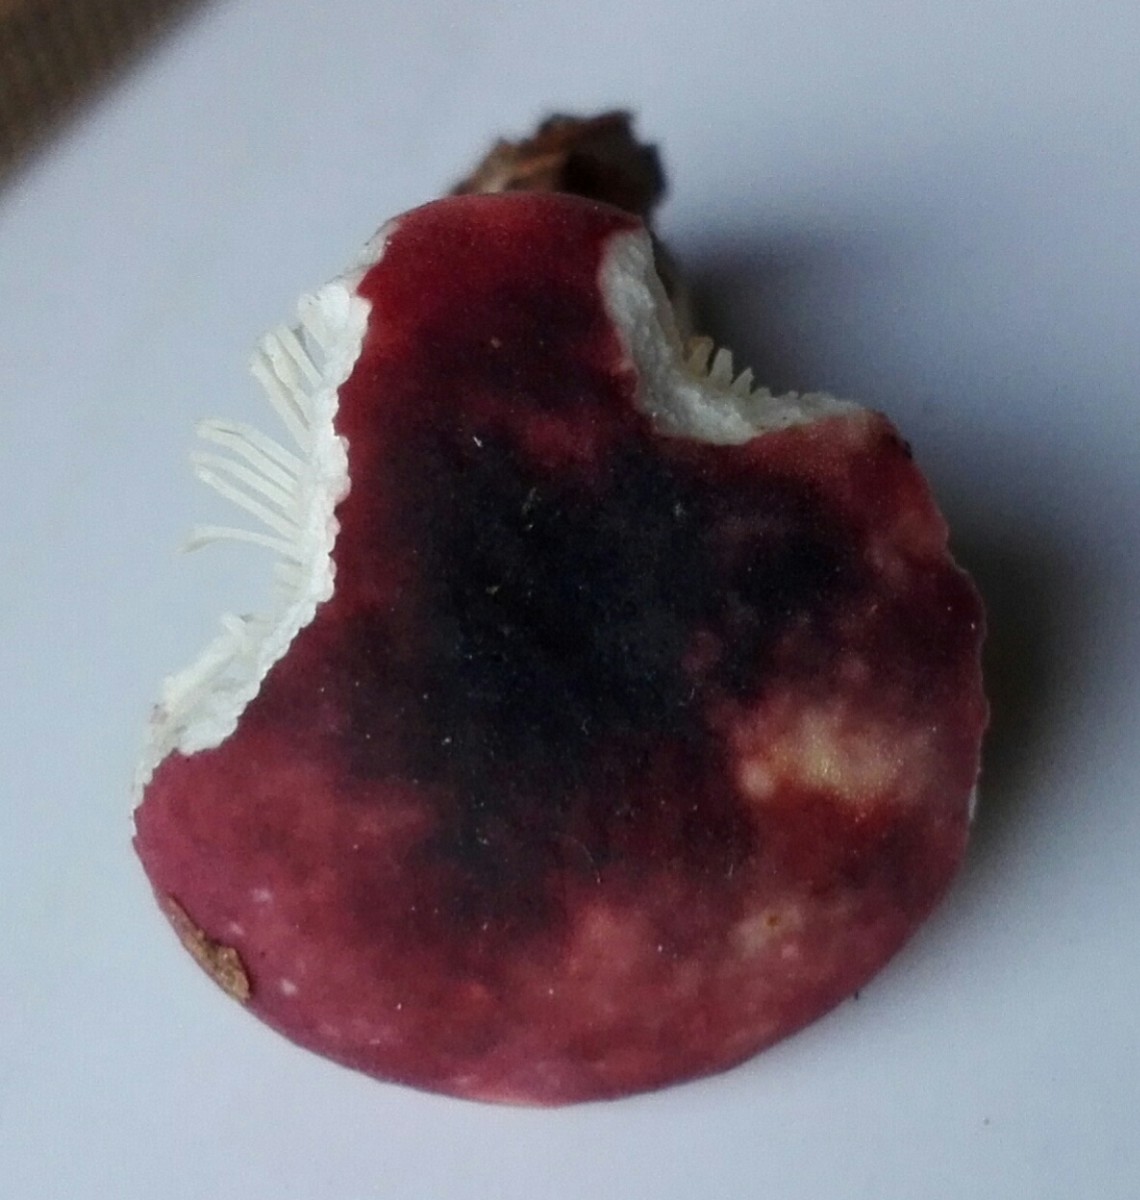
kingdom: Fungi
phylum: Basidiomycota
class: Agaricomycetes
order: Russulales
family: Russulaceae
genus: Russula
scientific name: Russula
